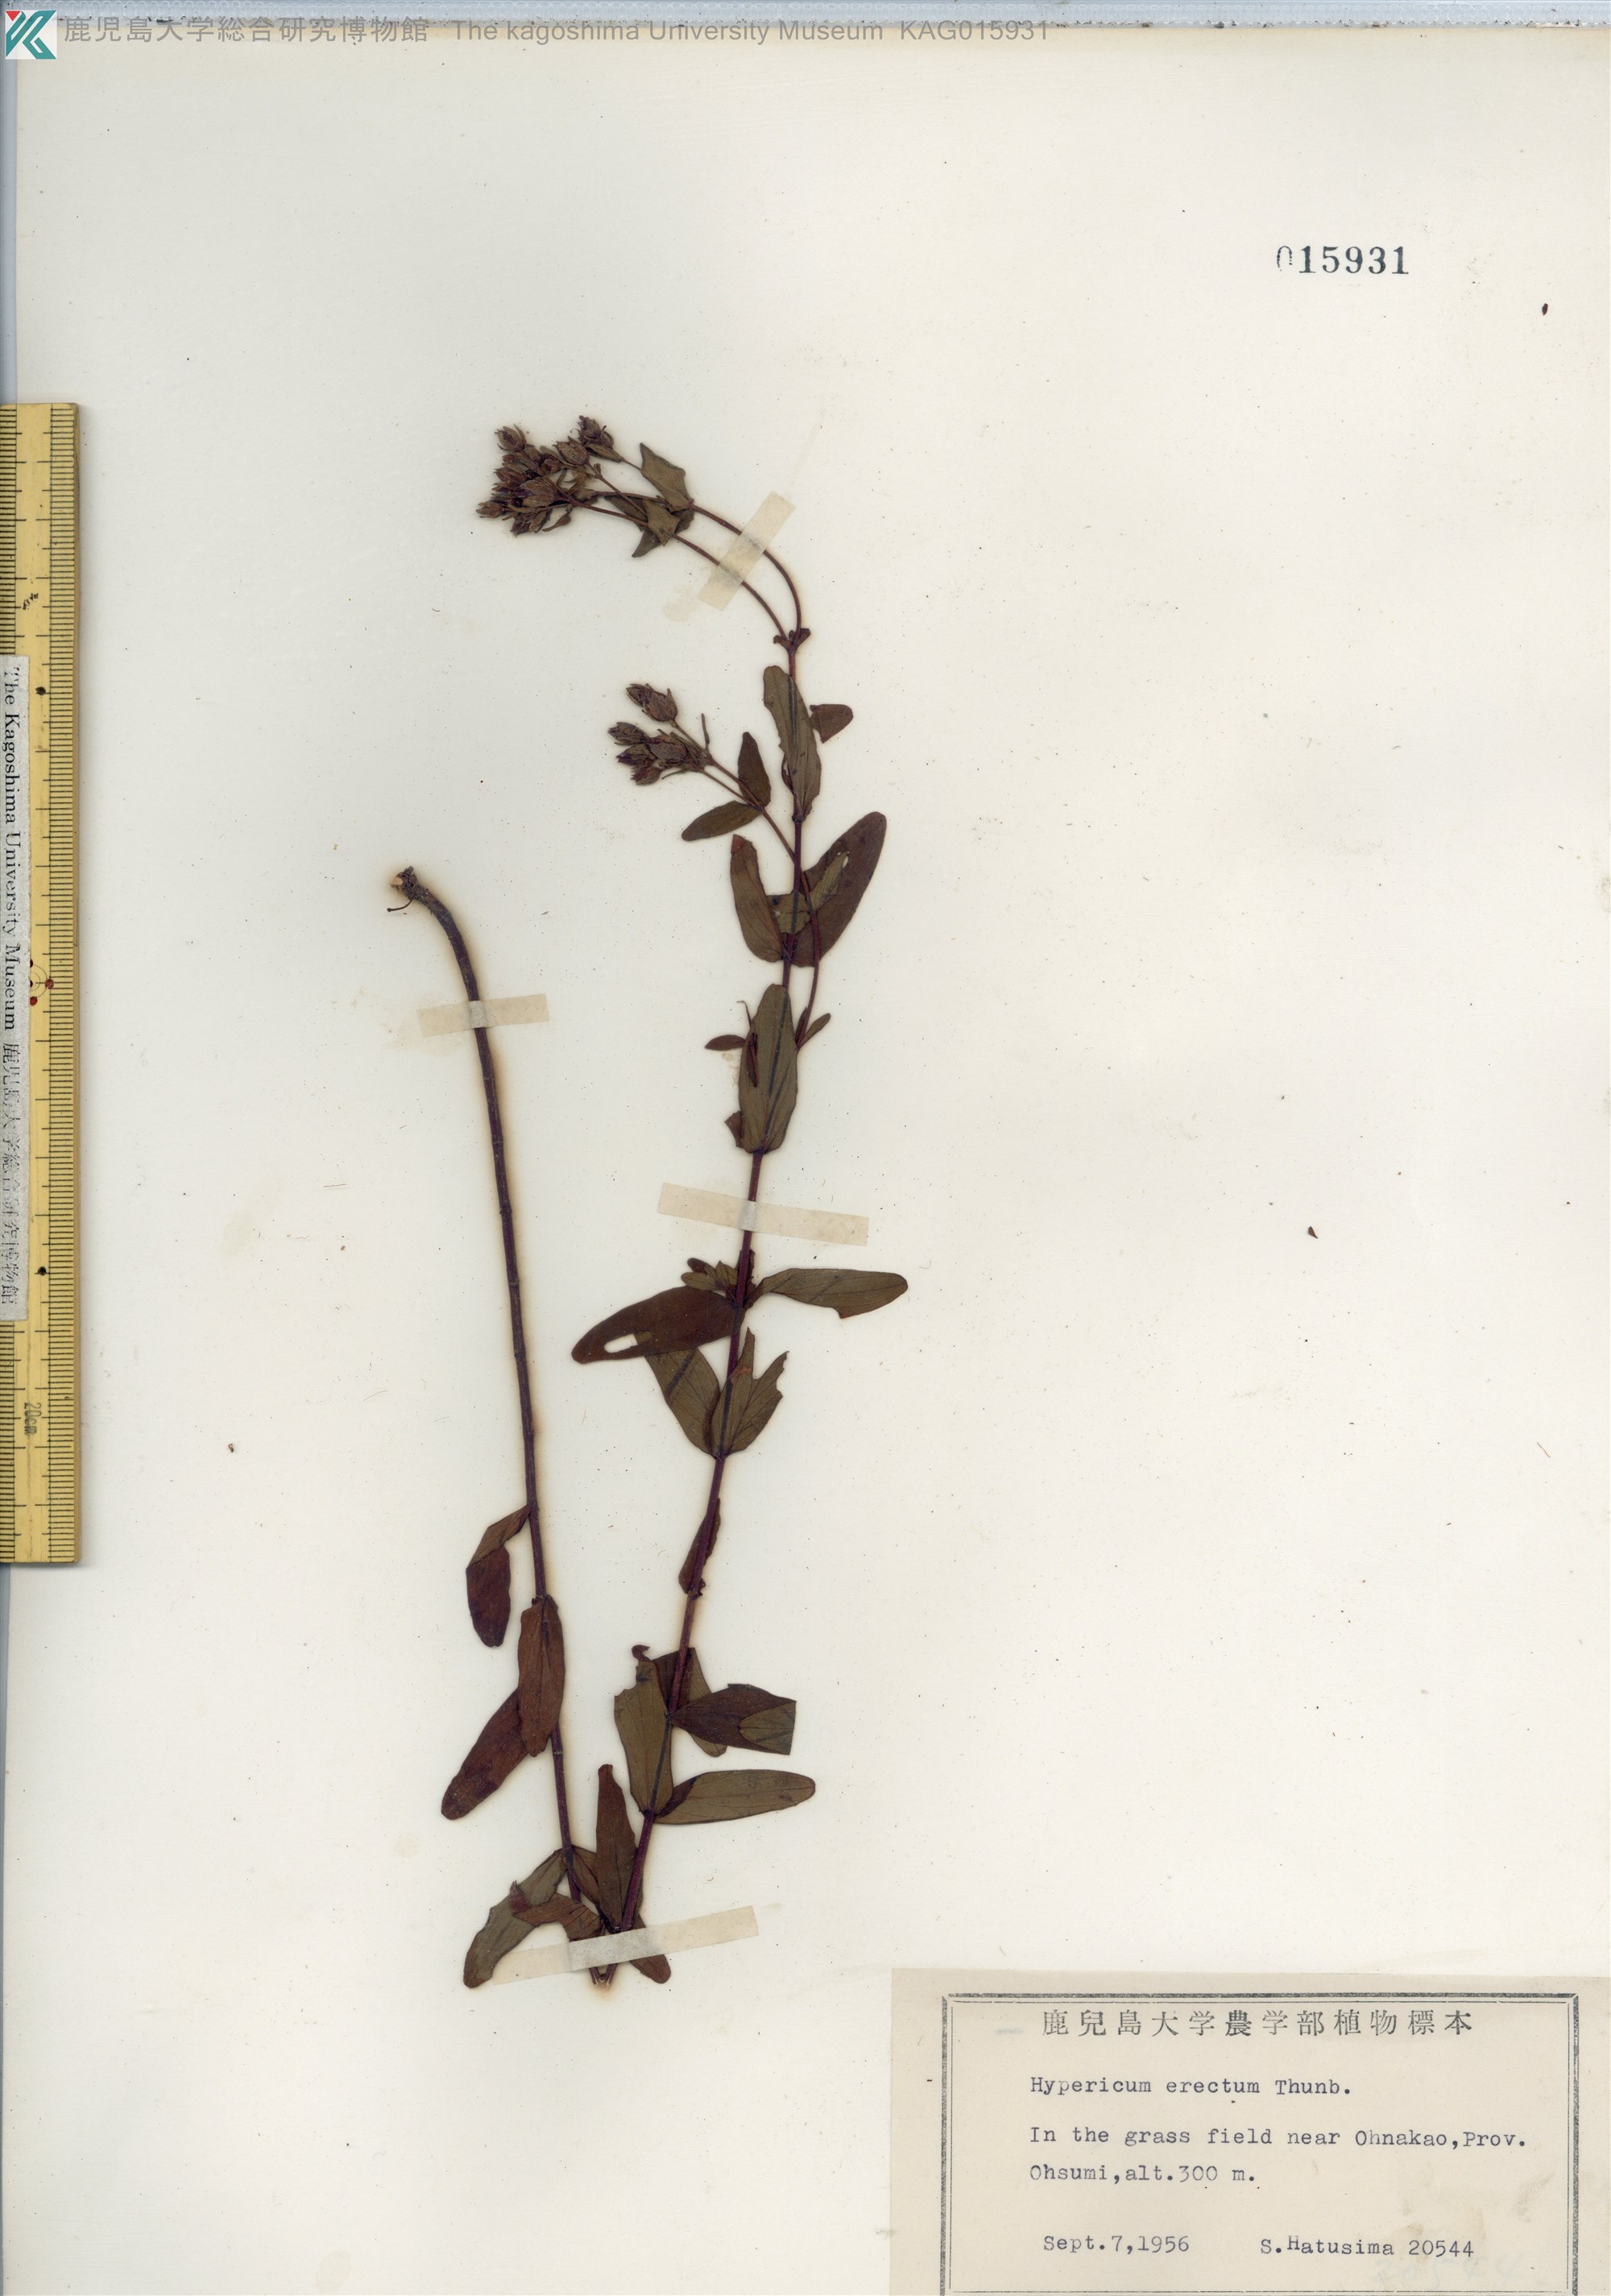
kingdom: Plantae
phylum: Tracheophyta
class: Magnoliopsida
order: Malpighiales
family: Hypericaceae
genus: Hypericum
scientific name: Hypericum erectum
